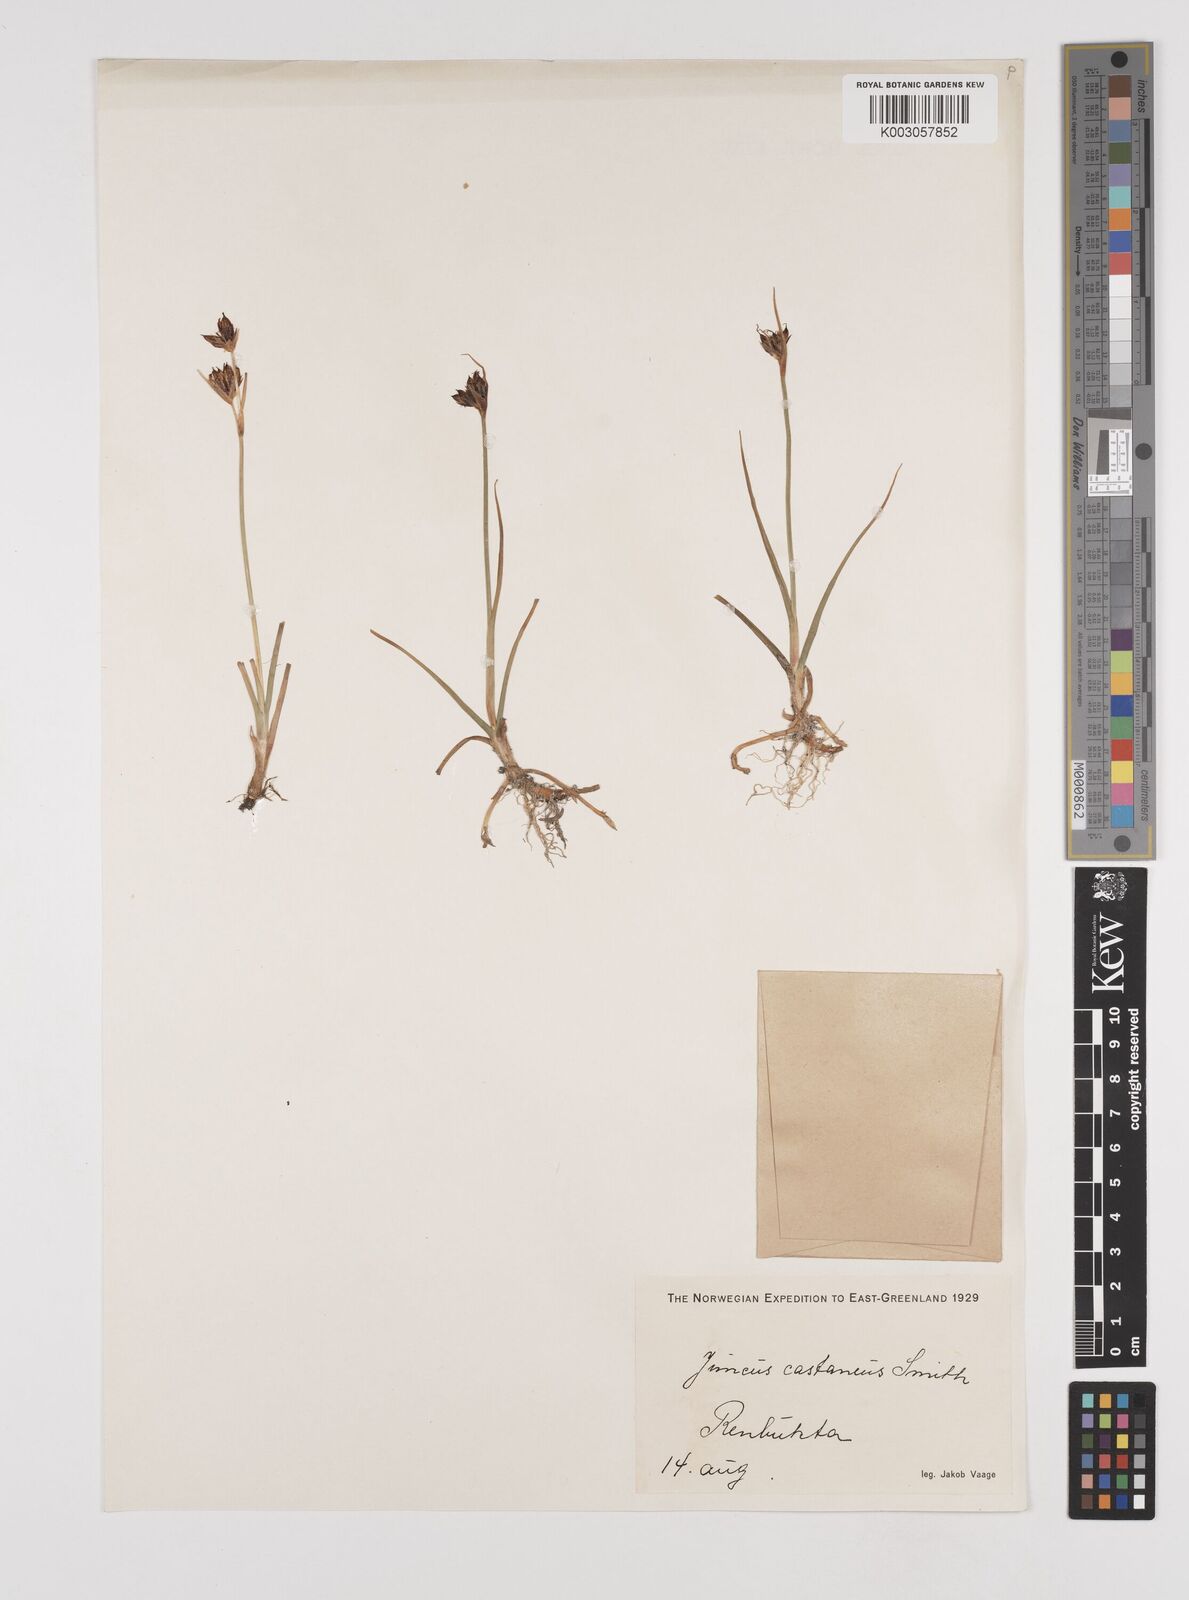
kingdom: Plantae
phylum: Tracheophyta
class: Liliopsida
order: Poales
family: Juncaceae
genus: Juncus
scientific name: Juncus castaneus
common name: Chestnut rush
